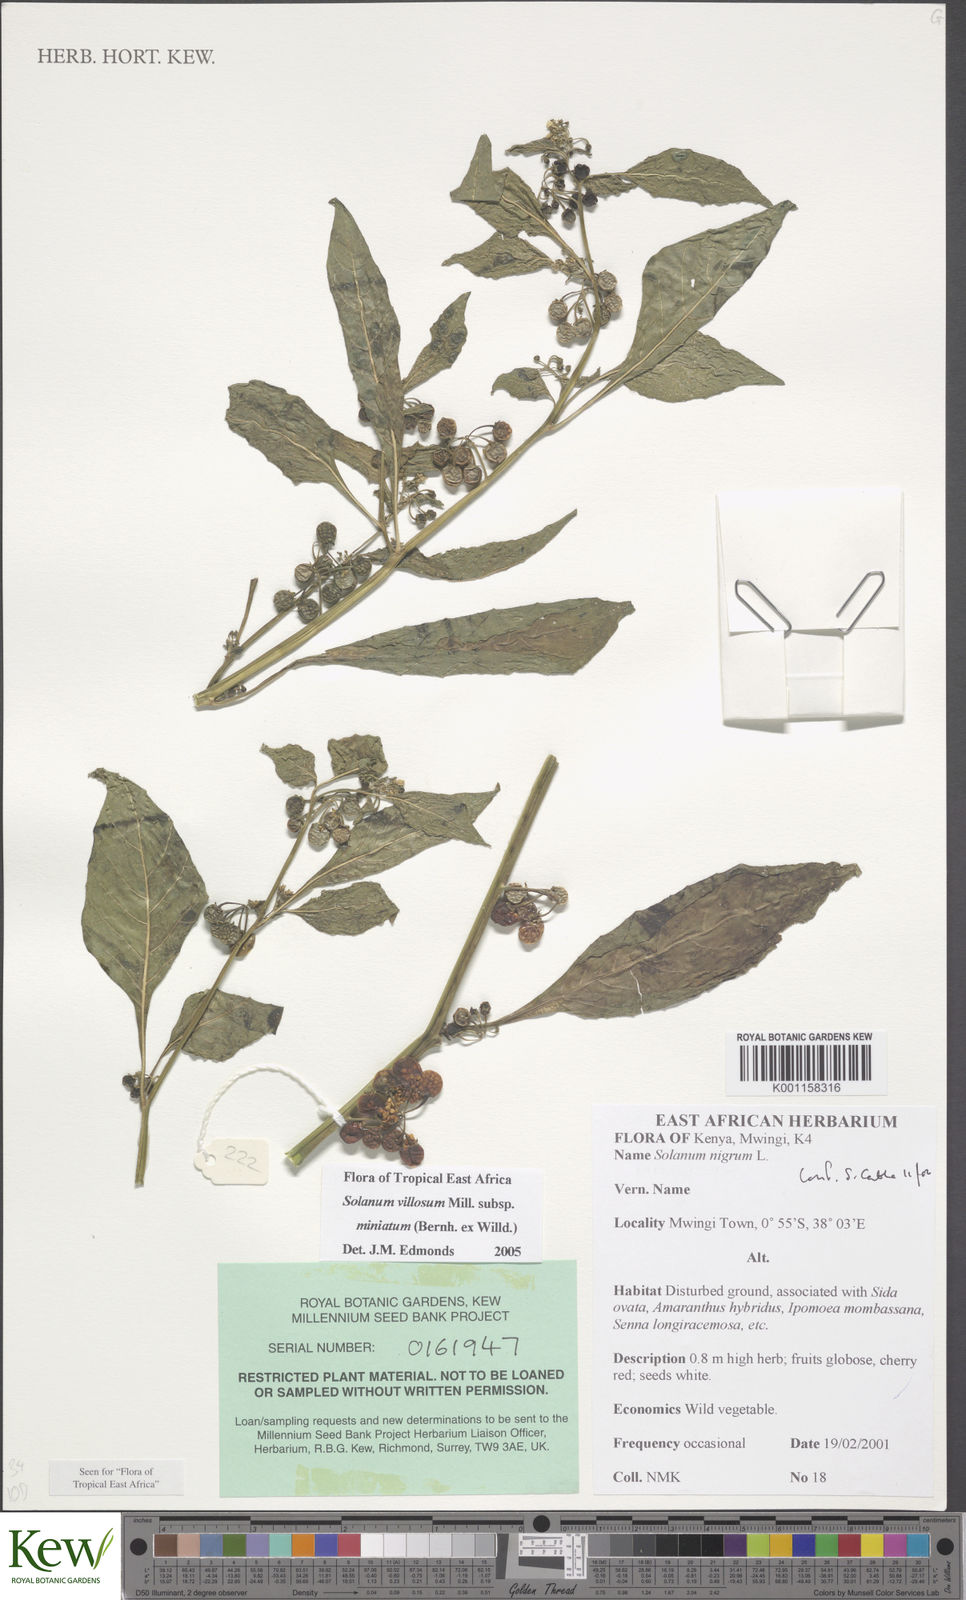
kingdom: Plantae
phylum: Tracheophyta
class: Magnoliopsida
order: Solanales
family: Solanaceae
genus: Solanum
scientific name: Solanum villosum
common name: Red nightshade
